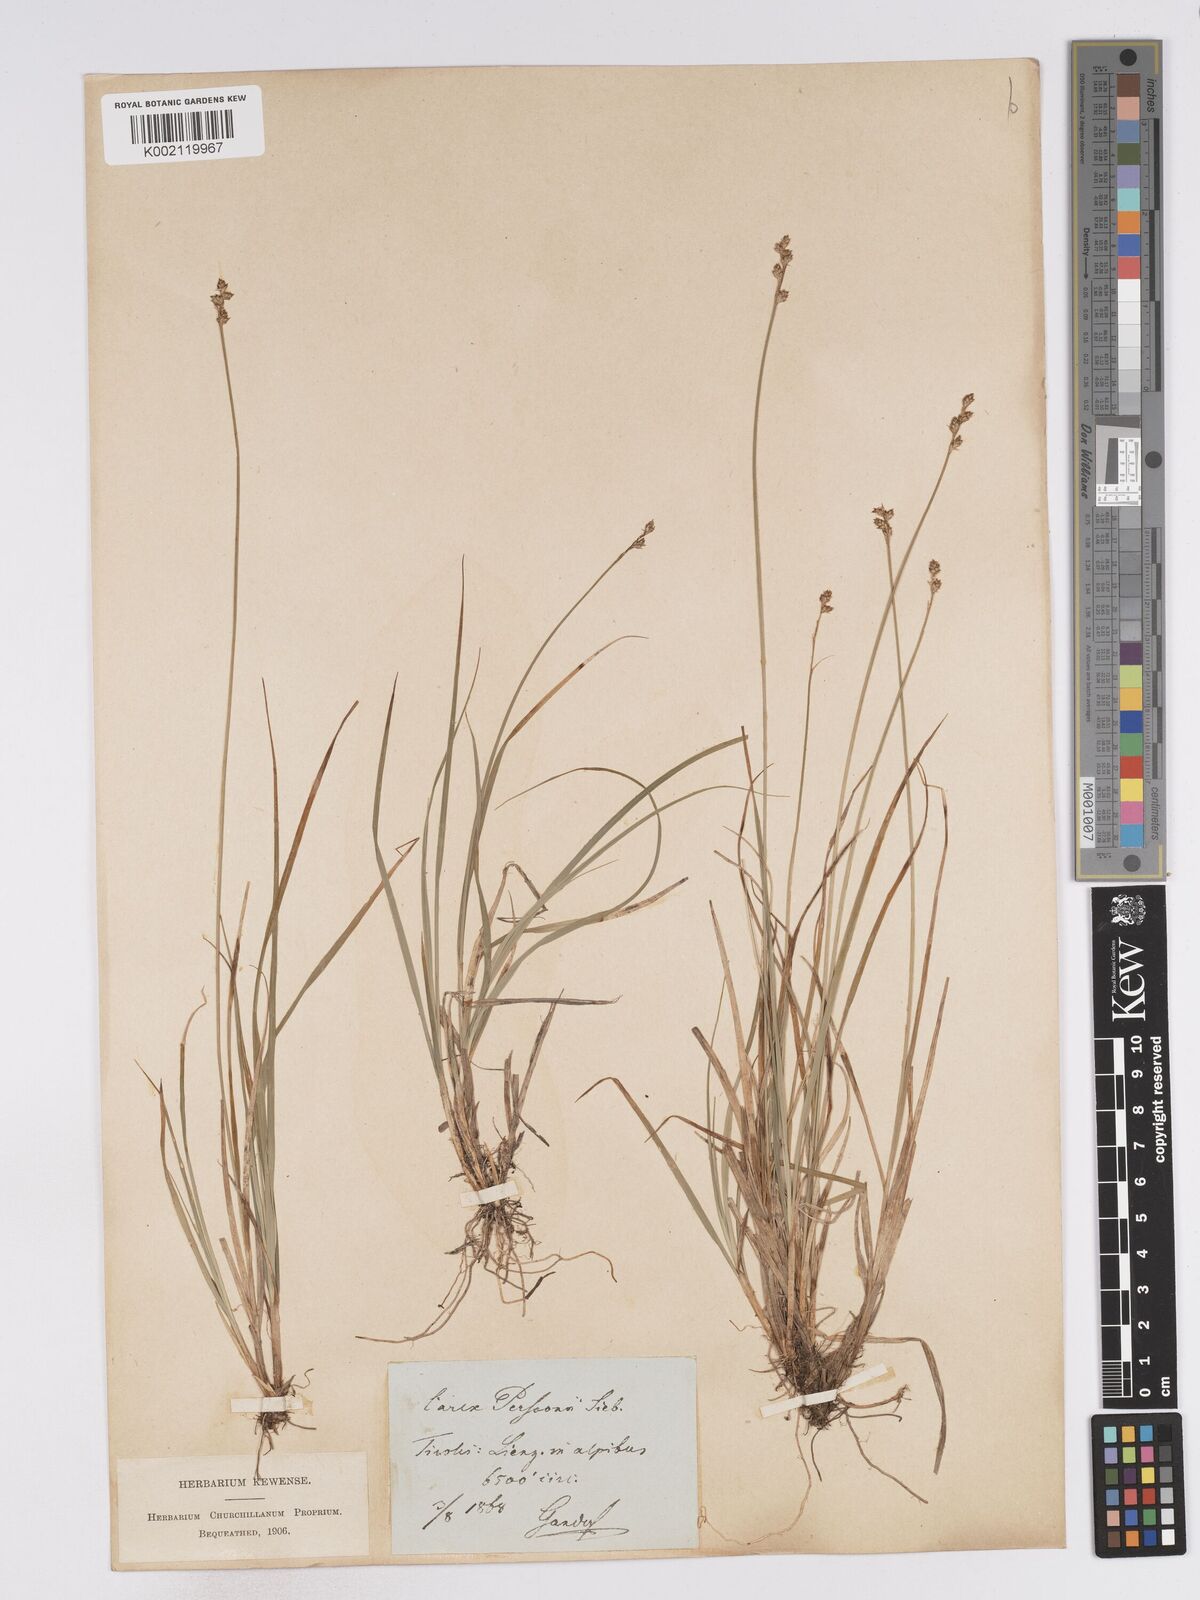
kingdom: Plantae
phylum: Tracheophyta
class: Liliopsida
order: Poales
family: Cyperaceae
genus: Carex
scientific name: Carex canescens
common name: White sedge
